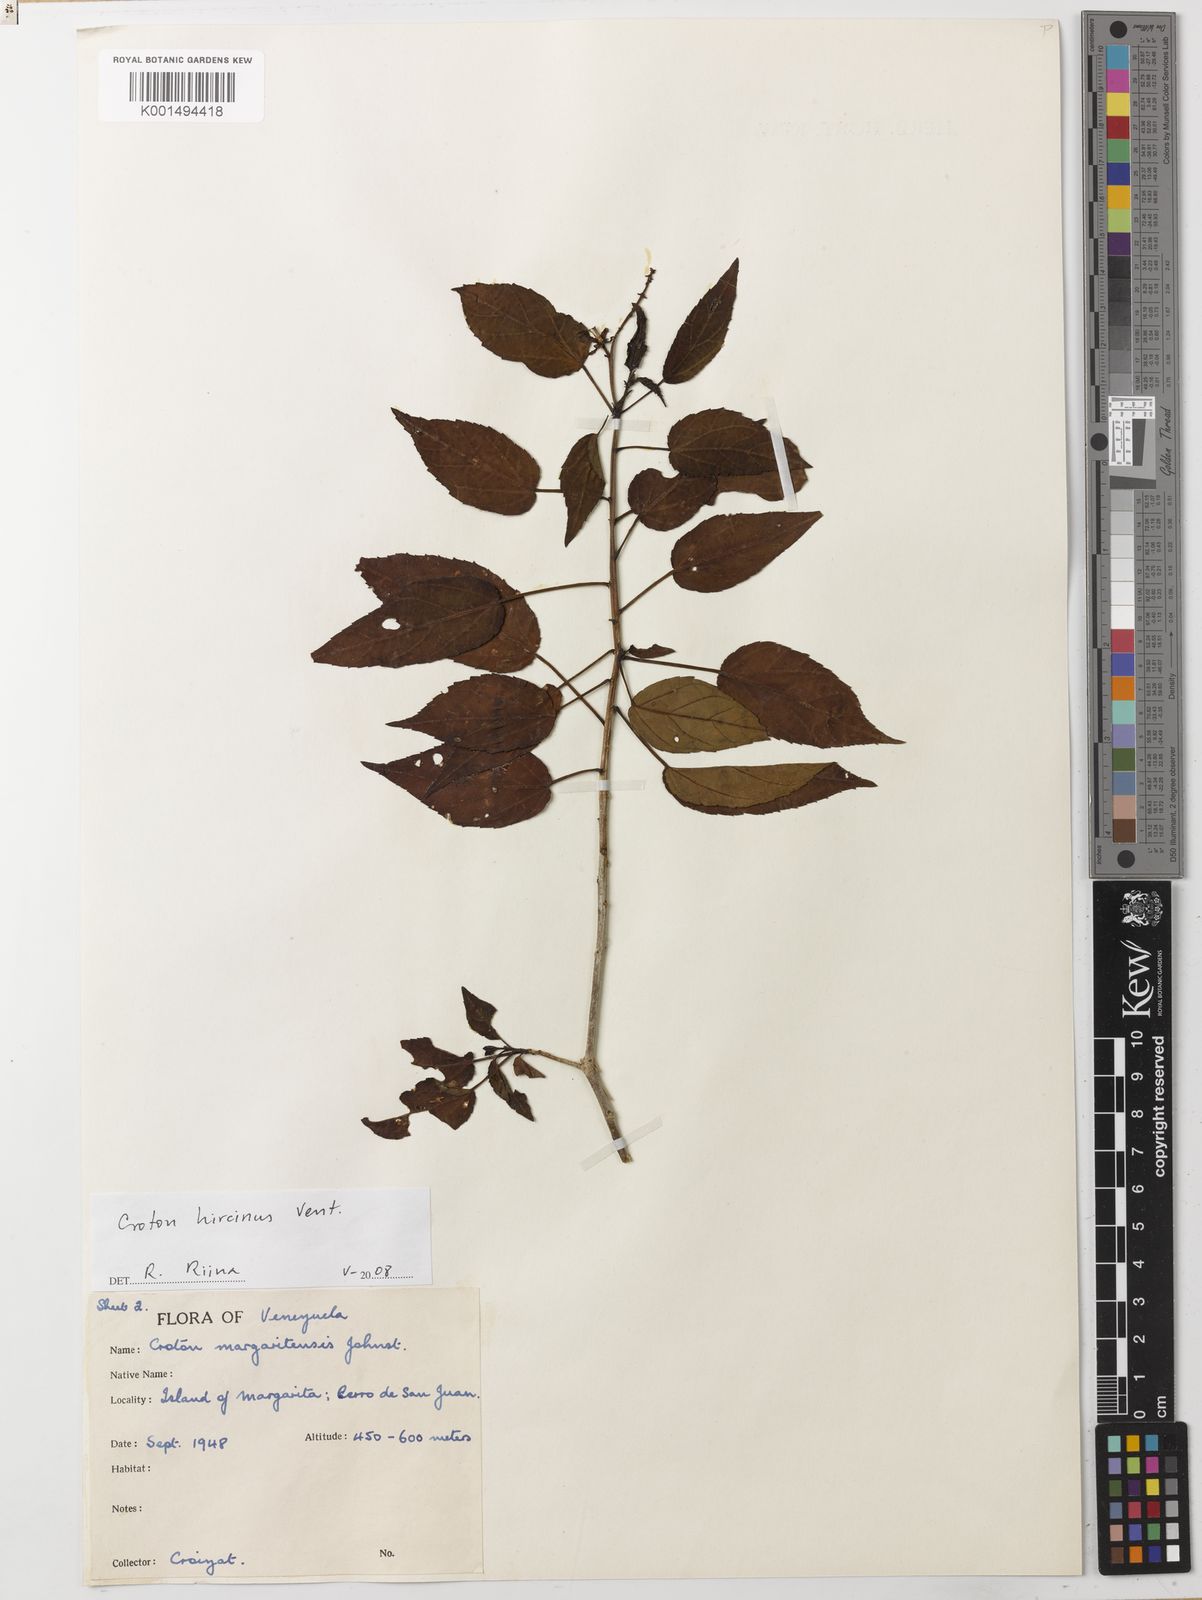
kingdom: Plantae
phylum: Tracheophyta
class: Magnoliopsida
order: Malpighiales
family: Euphorbiaceae
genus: Croton
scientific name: Croton hircinus
